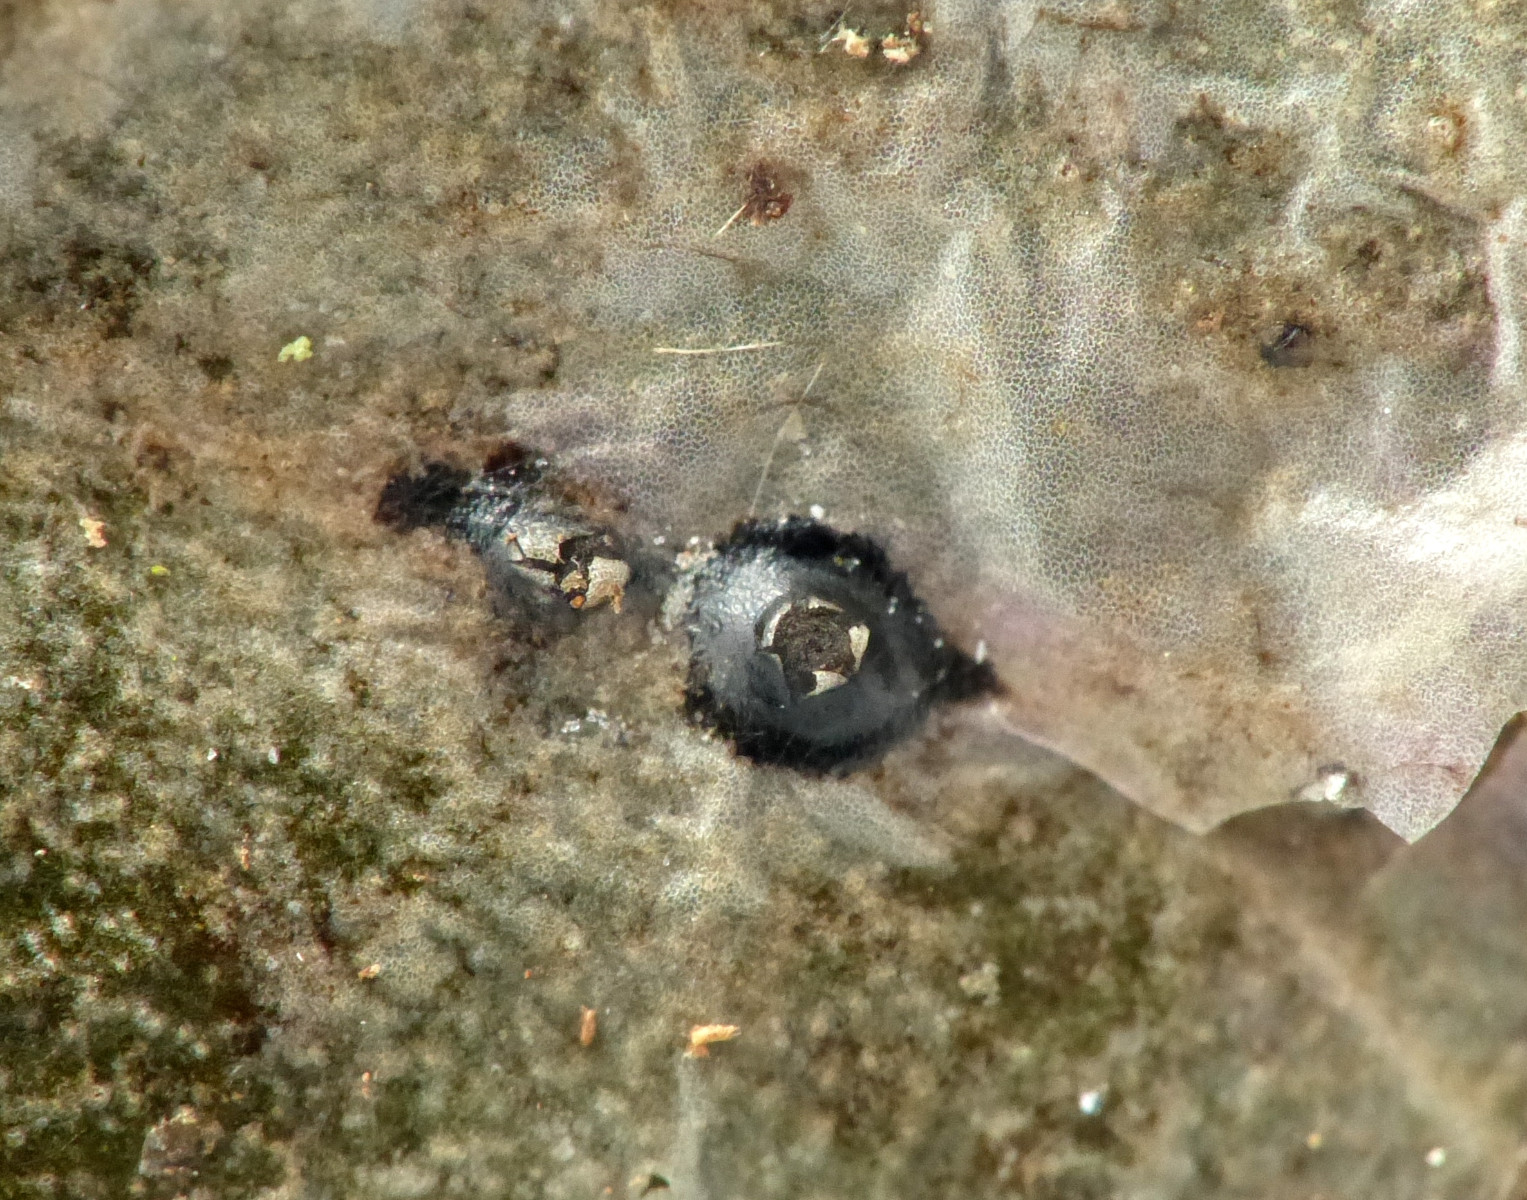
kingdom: Fungi
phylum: Ascomycota
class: Leotiomycetes
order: Phacidiales
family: Phacidiaceae
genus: Phacidium
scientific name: Phacidium lauri
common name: kristtorn-tandskive
